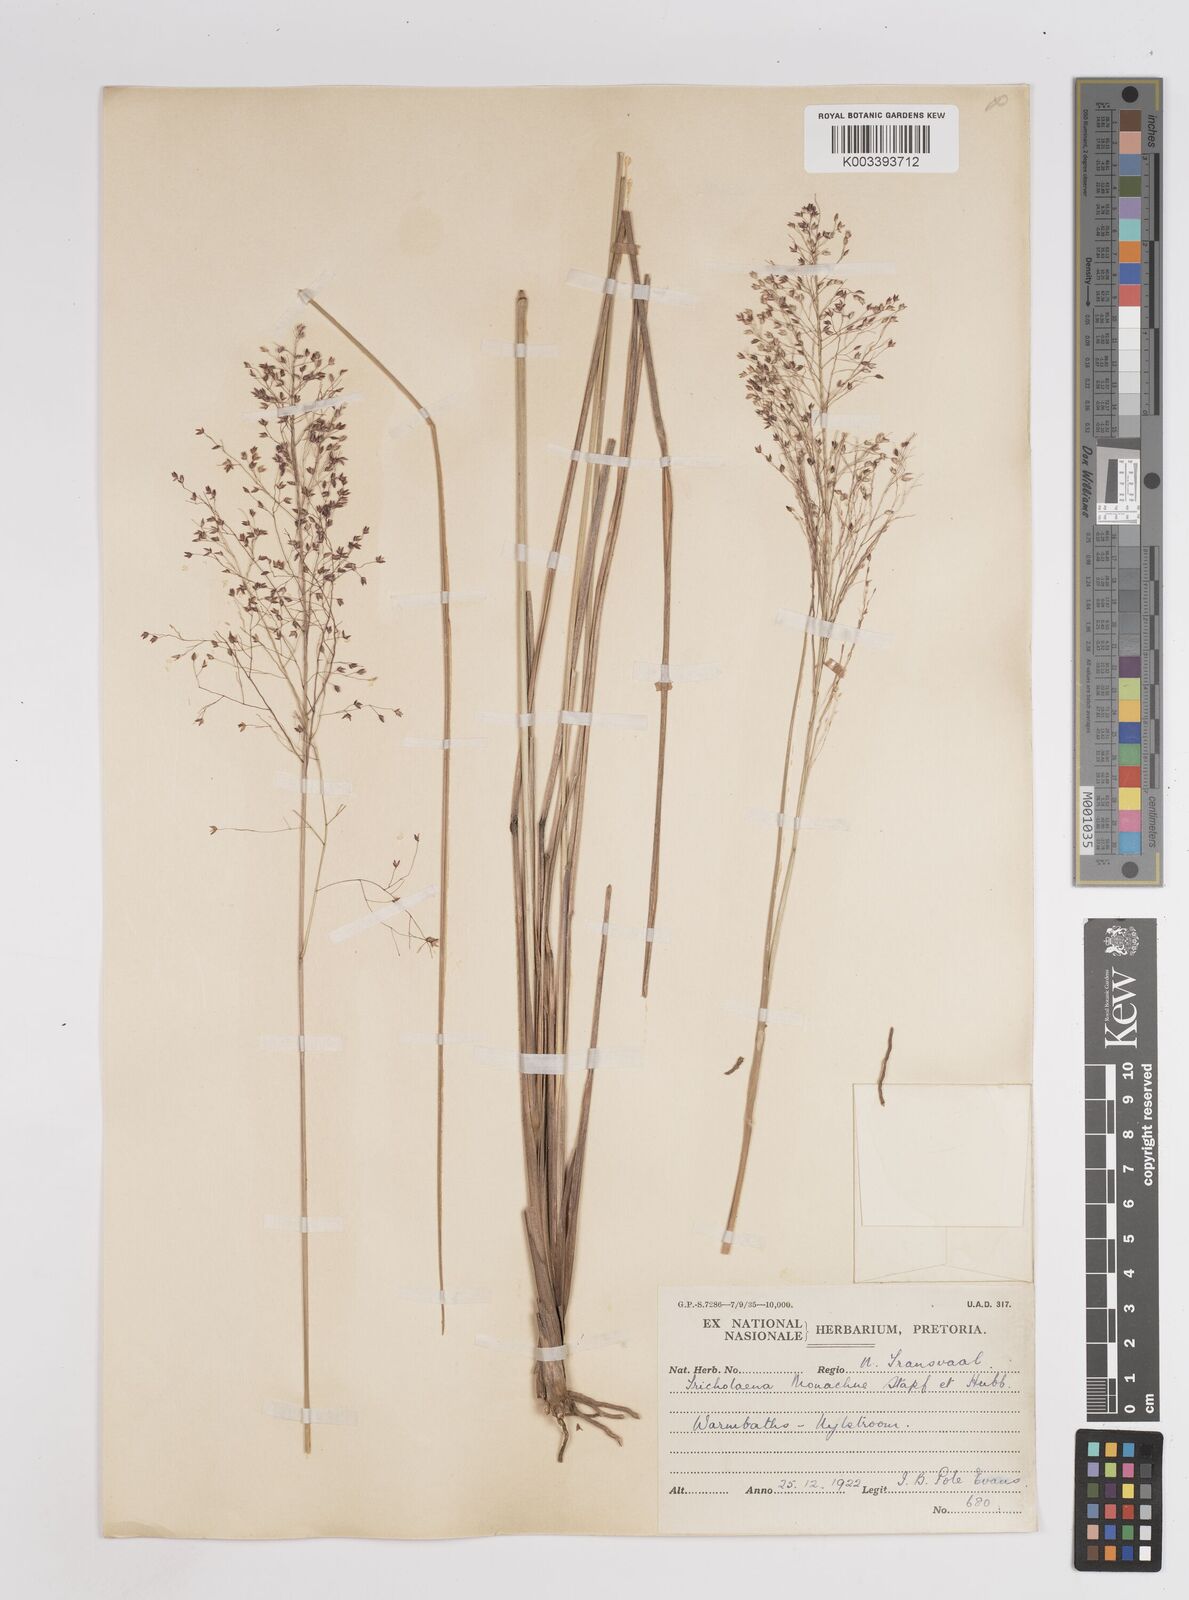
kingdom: Plantae
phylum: Tracheophyta
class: Liliopsida
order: Poales
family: Poaceae
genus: Panicum
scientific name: Panicum dregeanum
